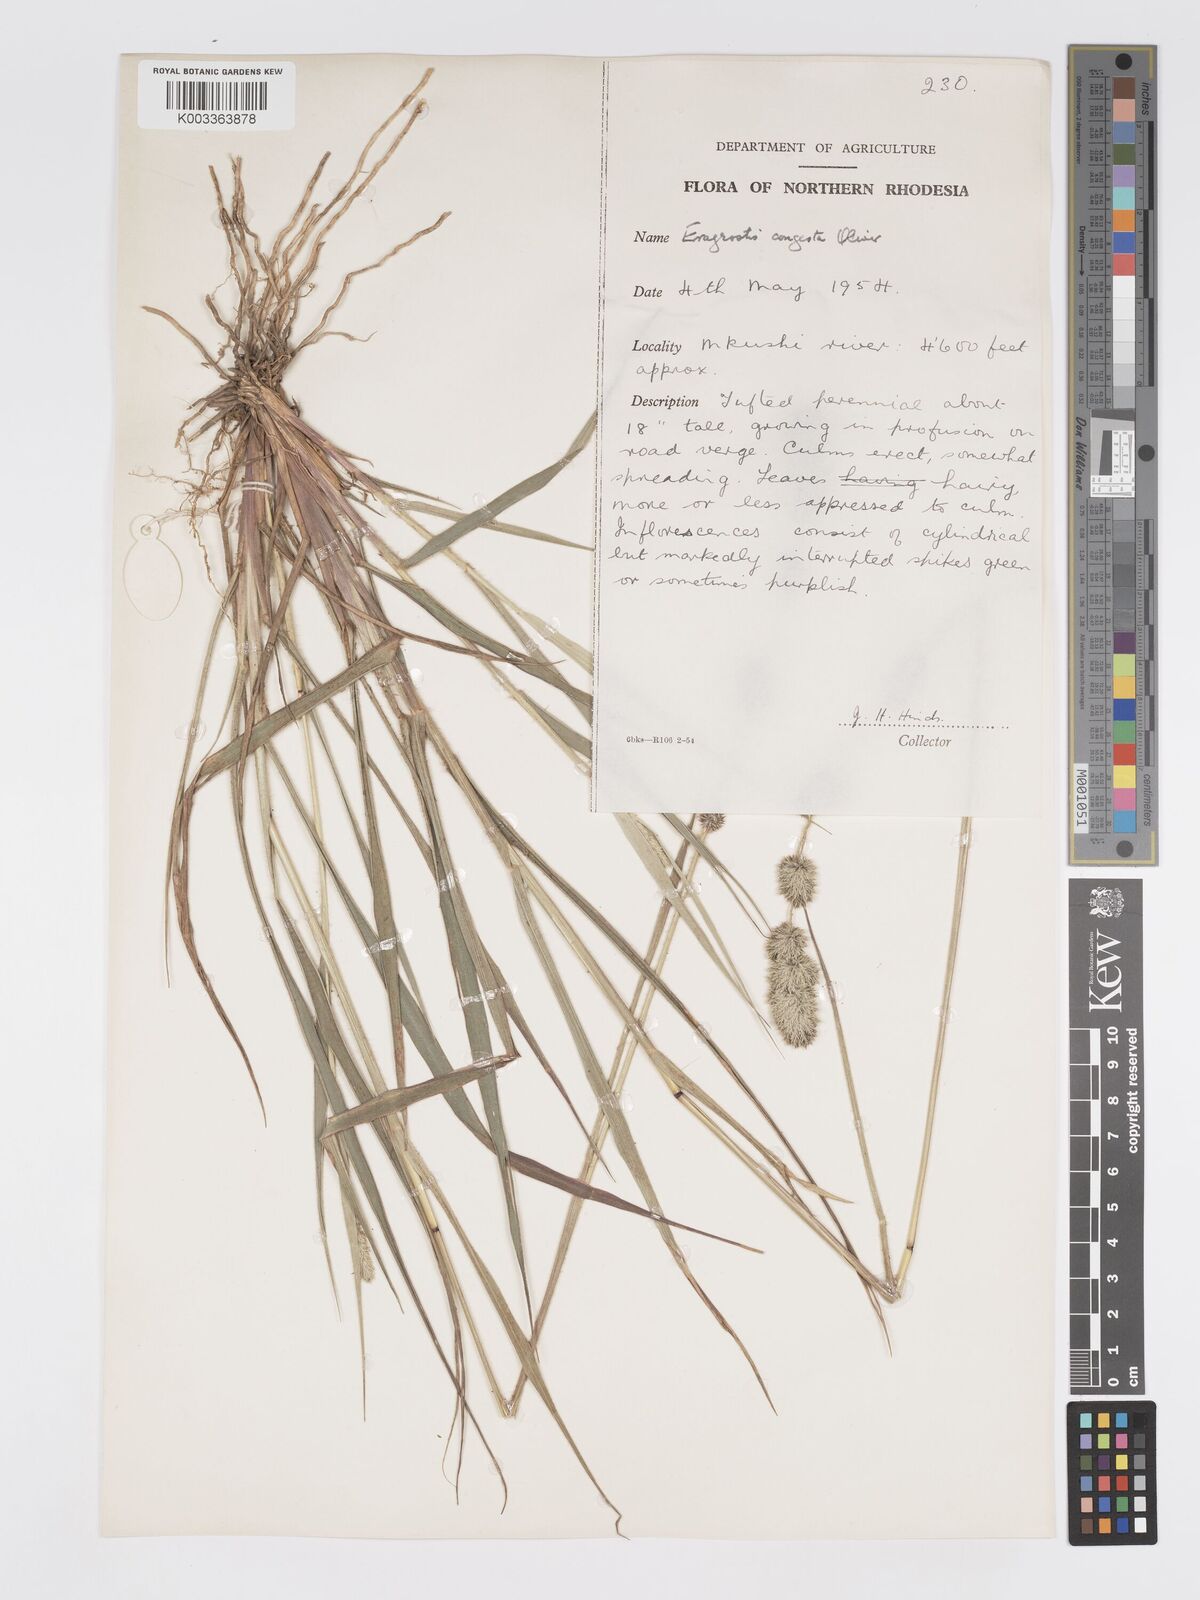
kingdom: Plantae
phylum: Tracheophyta
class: Liliopsida
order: Poales
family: Poaceae
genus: Eragrostis
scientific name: Eragrostis congesta
